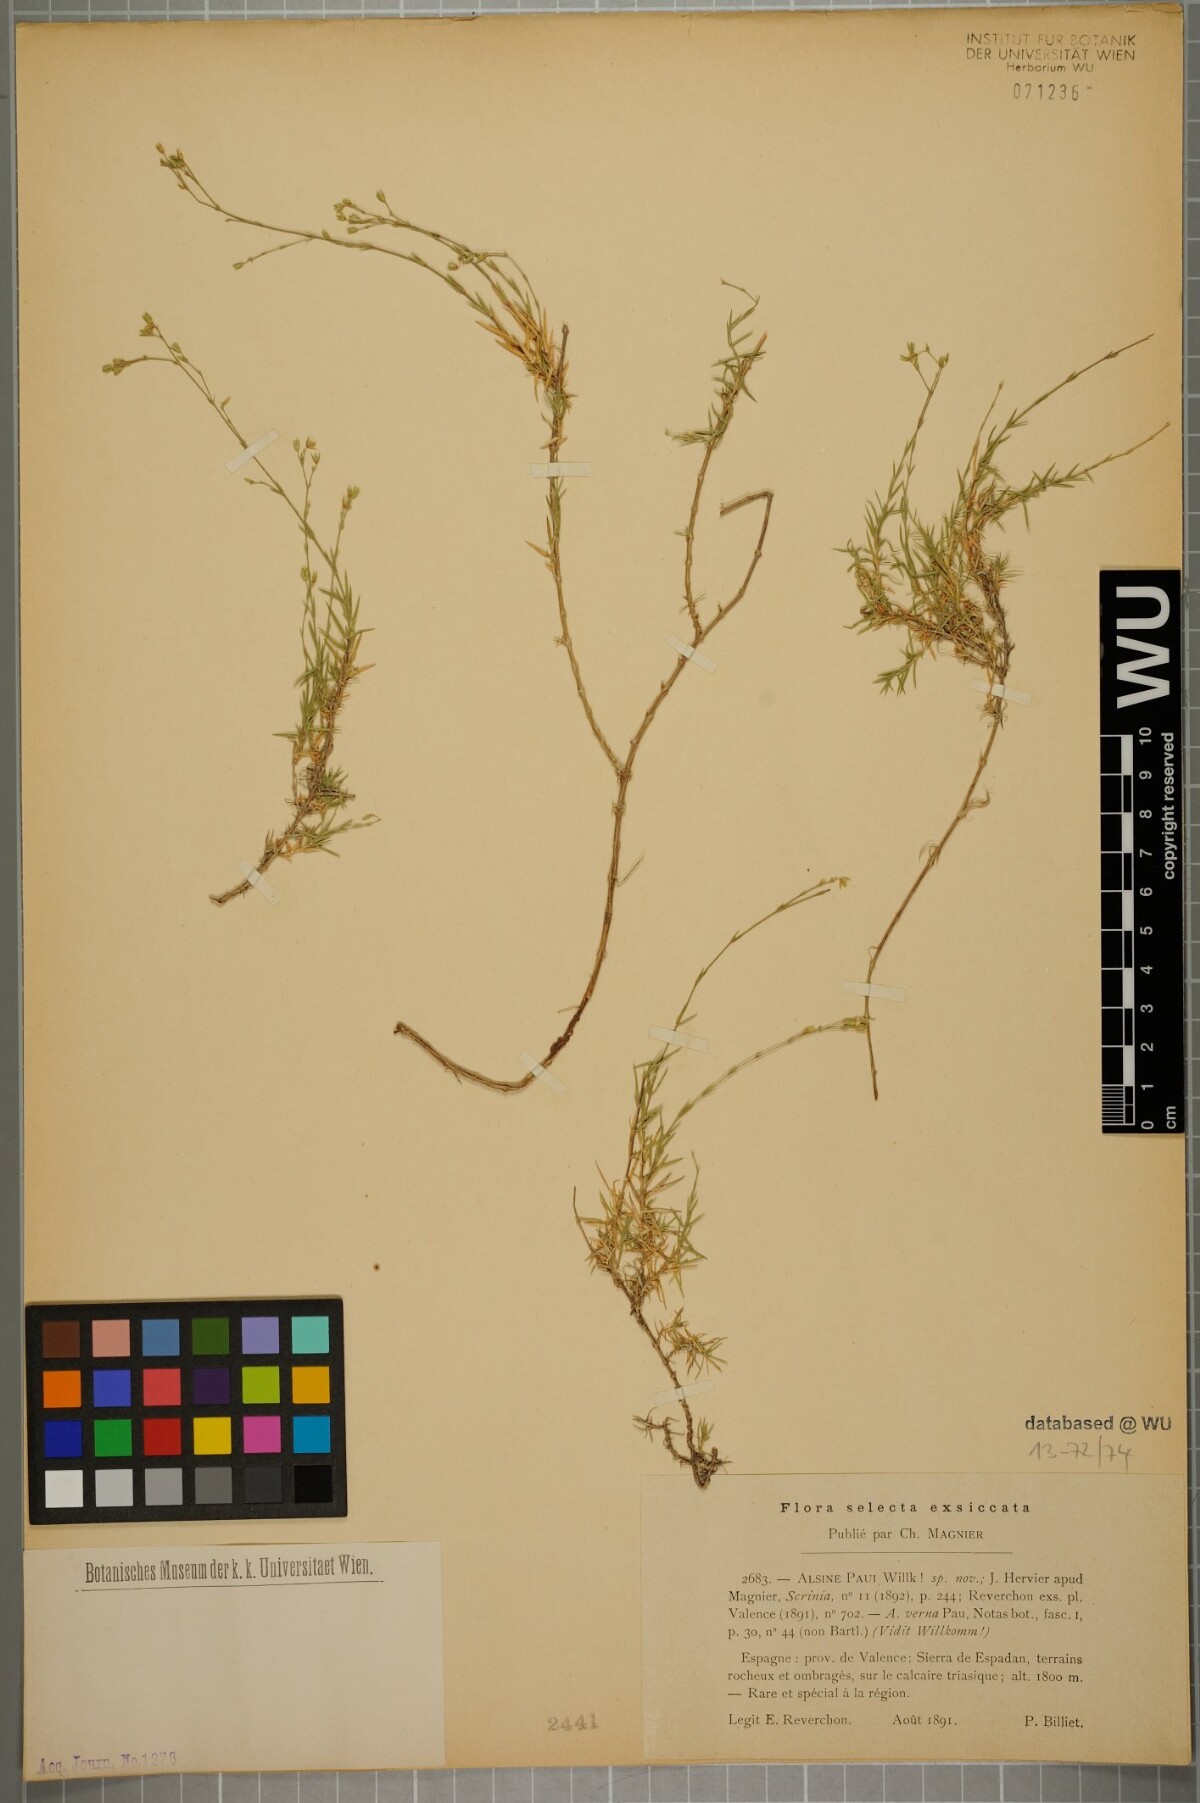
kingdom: Plantae
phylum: Tracheophyta
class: Magnoliopsida
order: Caryophyllales
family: Caryophyllaceae
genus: Facchinia
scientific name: Facchinia valentina
